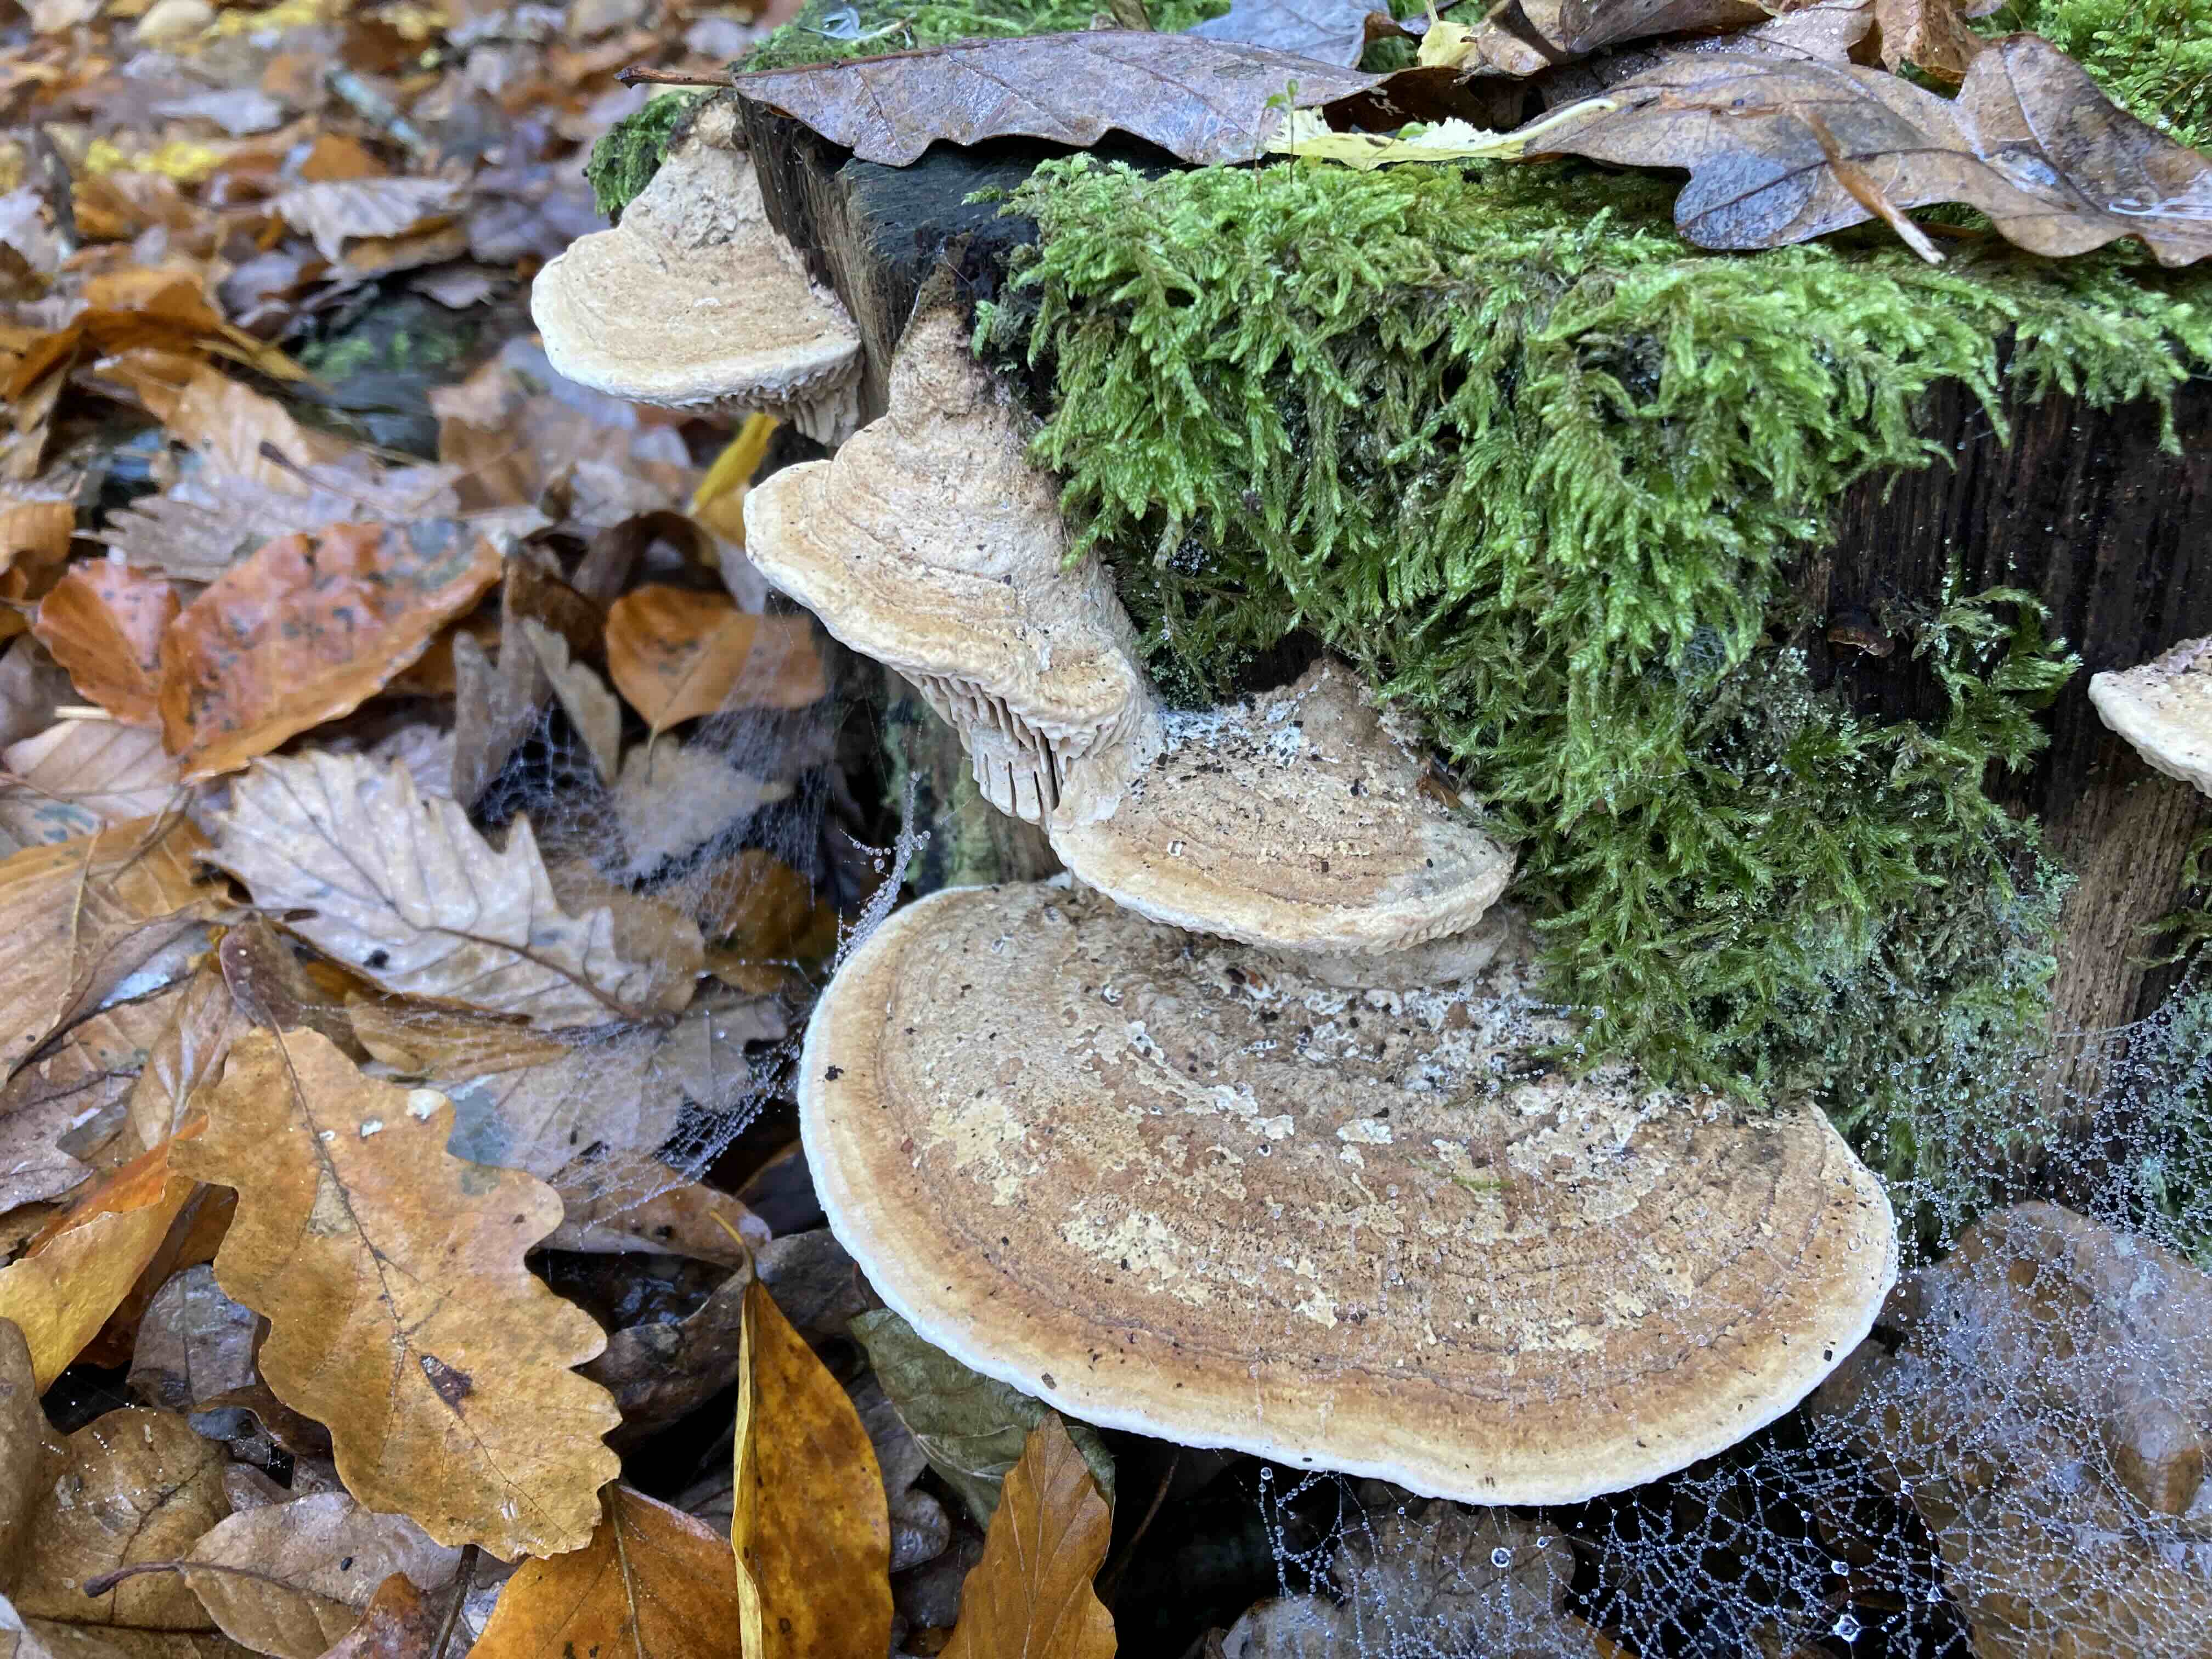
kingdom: Fungi
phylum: Basidiomycota
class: Agaricomycetes
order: Polyporales
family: Fomitopsidaceae
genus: Daedalea
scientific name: Daedalea quercina
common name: ege-labyrintsvamp
